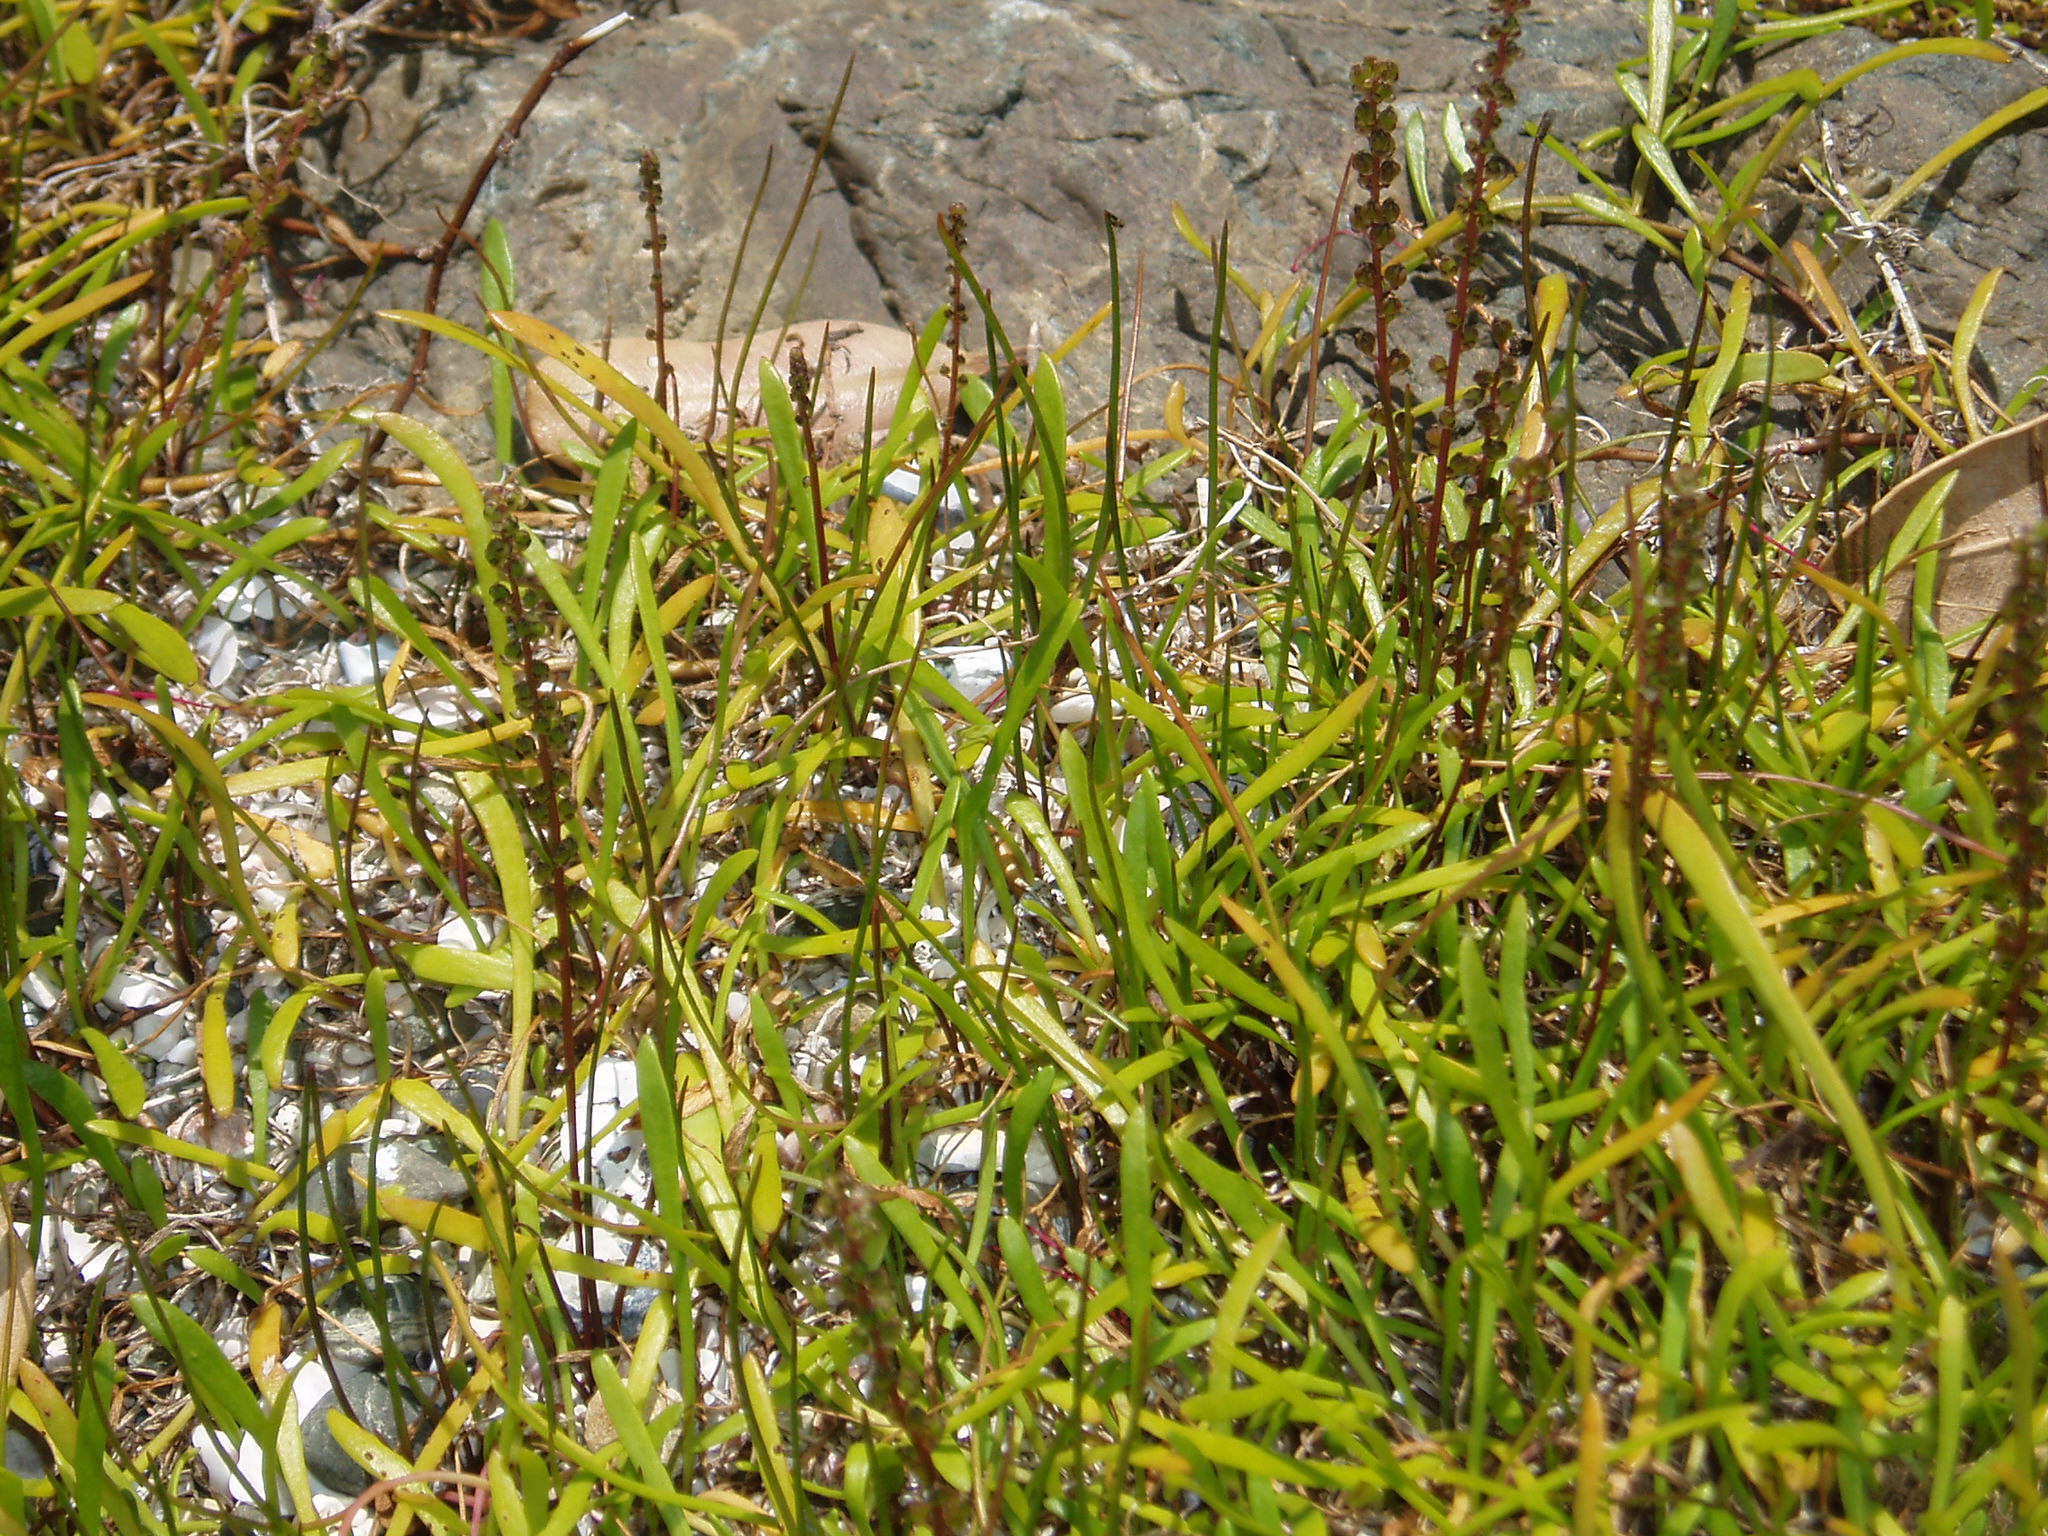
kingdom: Plantae
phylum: Tracheophyta
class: Liliopsida
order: Alismatales
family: Juncaginaceae
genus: Triglochin
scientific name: Triglochin striata
